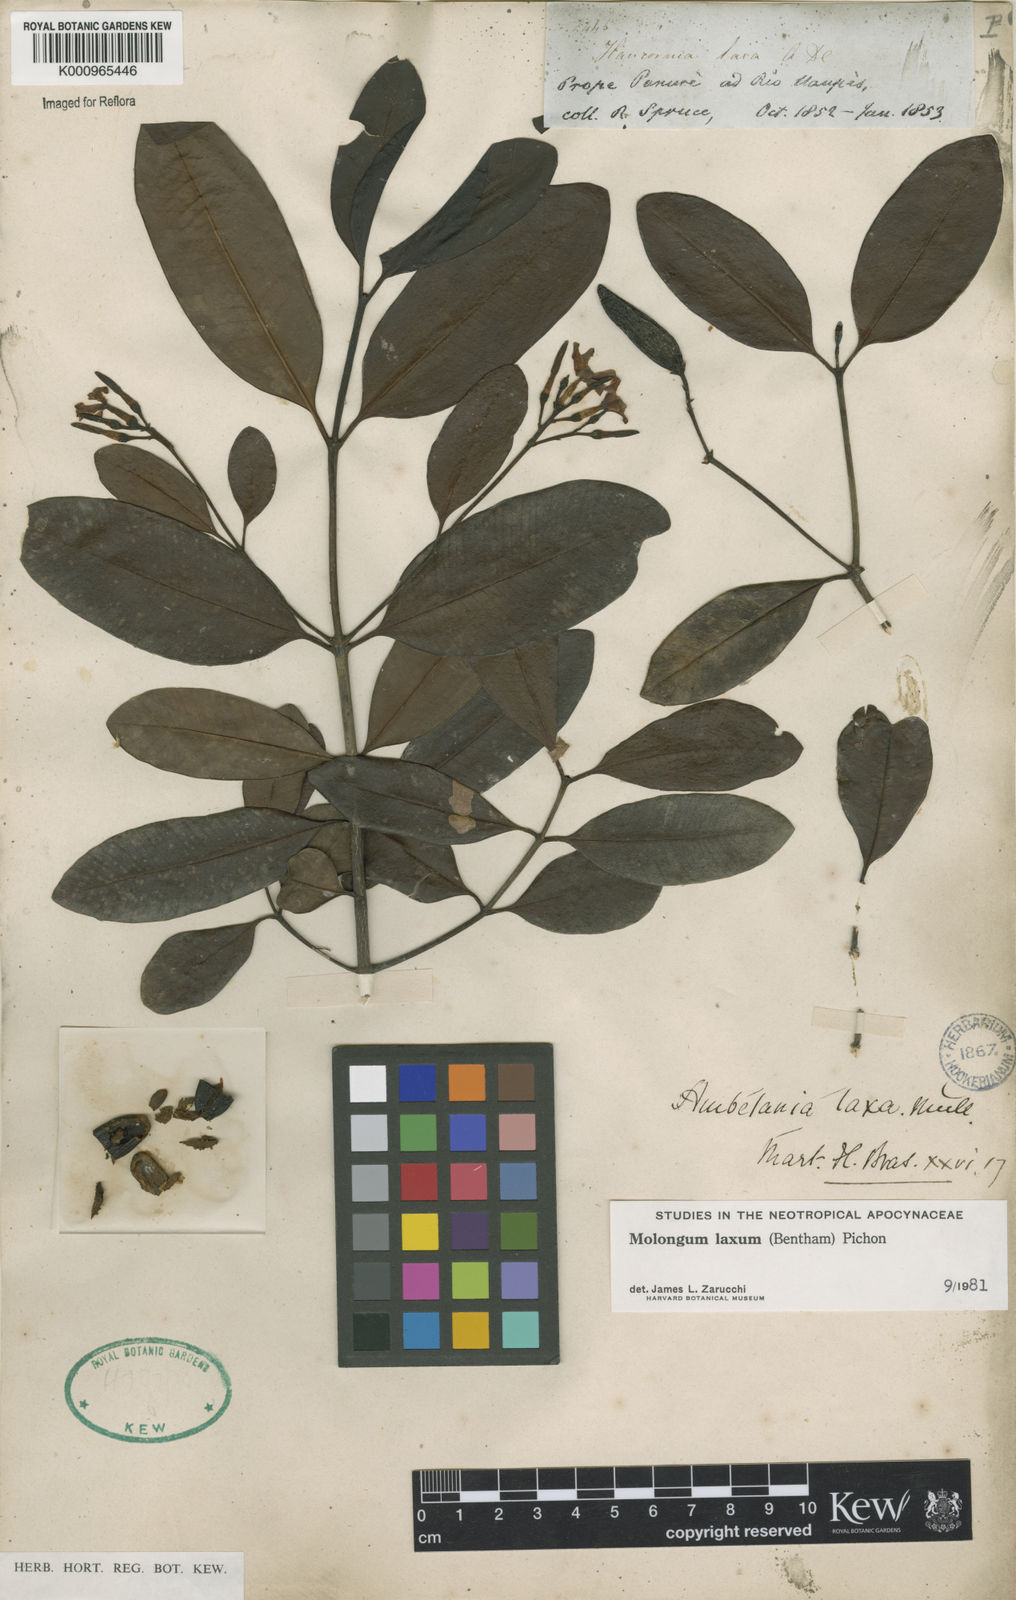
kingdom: Plantae
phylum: Tracheophyta
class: Magnoliopsida
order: Gentianales
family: Apocynaceae
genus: Molongum
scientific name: Molongum laxum
